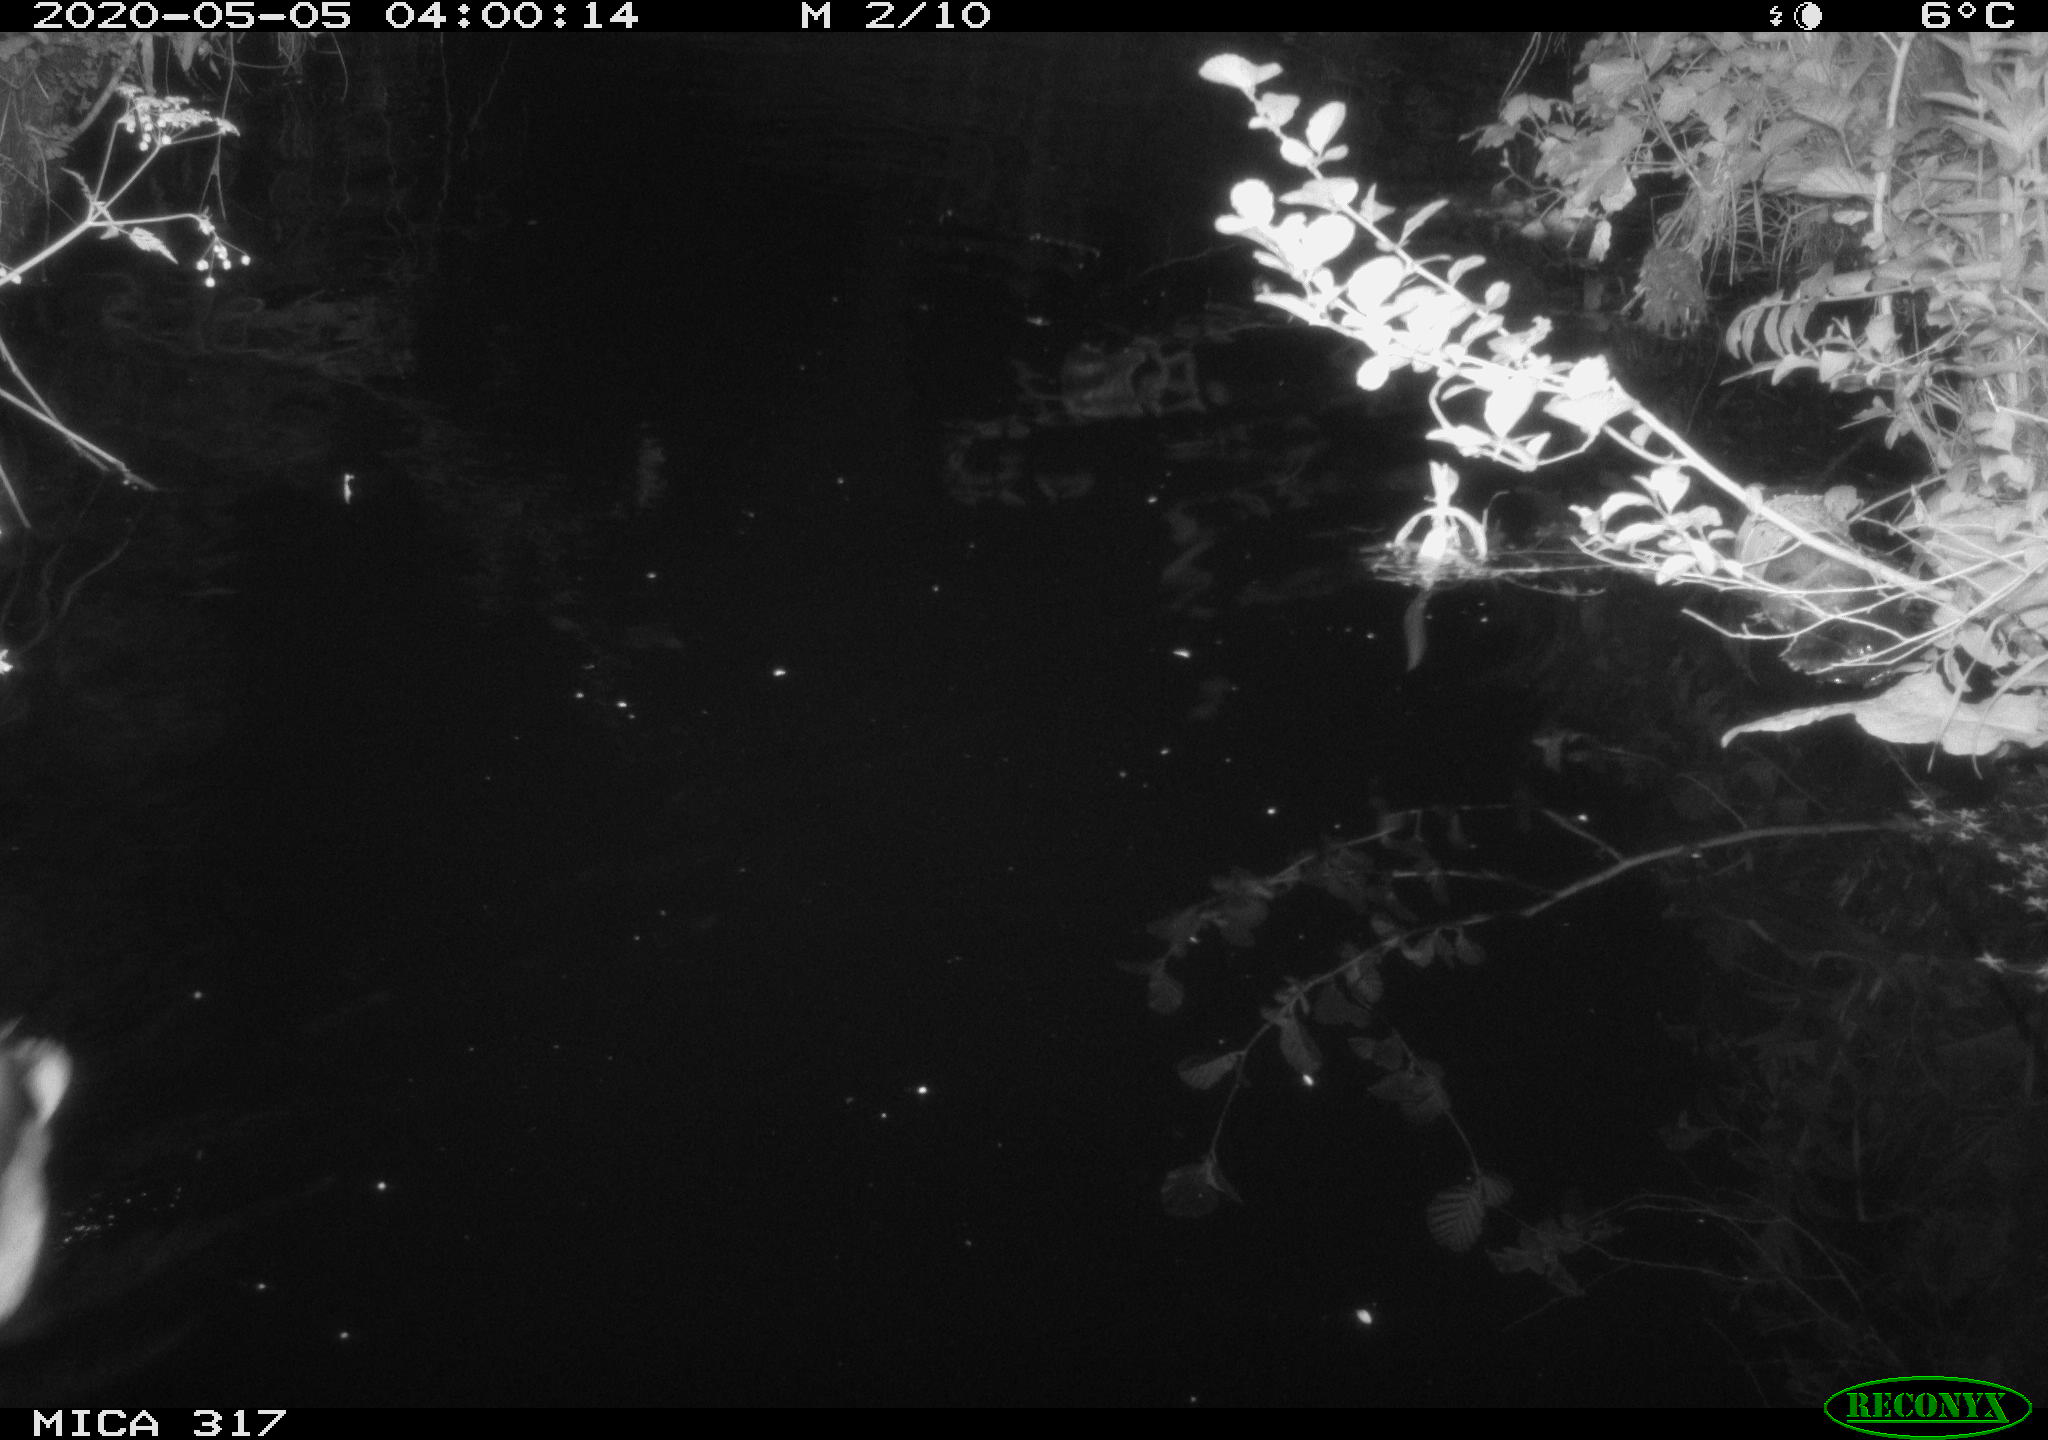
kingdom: Animalia
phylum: Chordata
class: Aves
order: Anseriformes
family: Anatidae
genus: Anas
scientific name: Anas platyrhynchos
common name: Mallard
